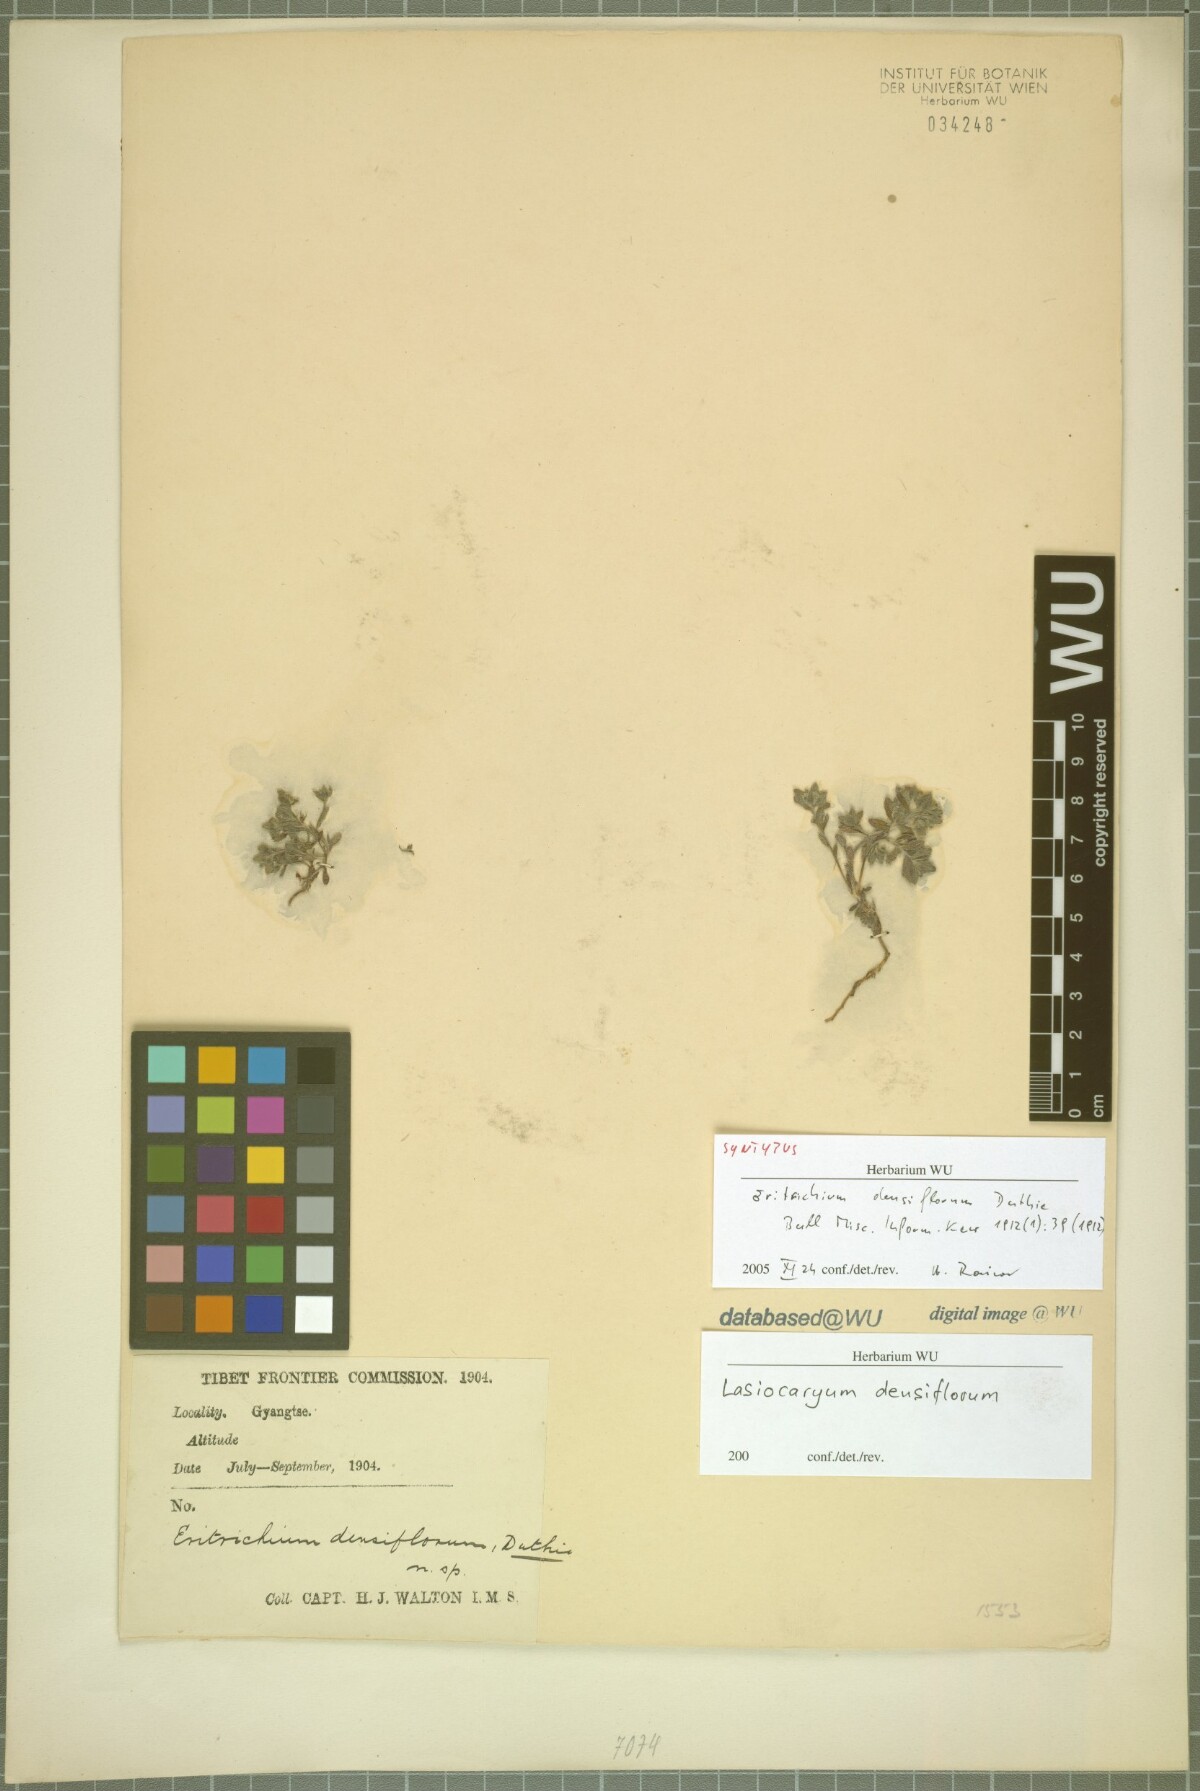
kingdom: Plantae
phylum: Tracheophyta
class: Magnoliopsida
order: Boraginales
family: Boraginaceae
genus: Lasiocaryum
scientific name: Lasiocaryum densiflorum
